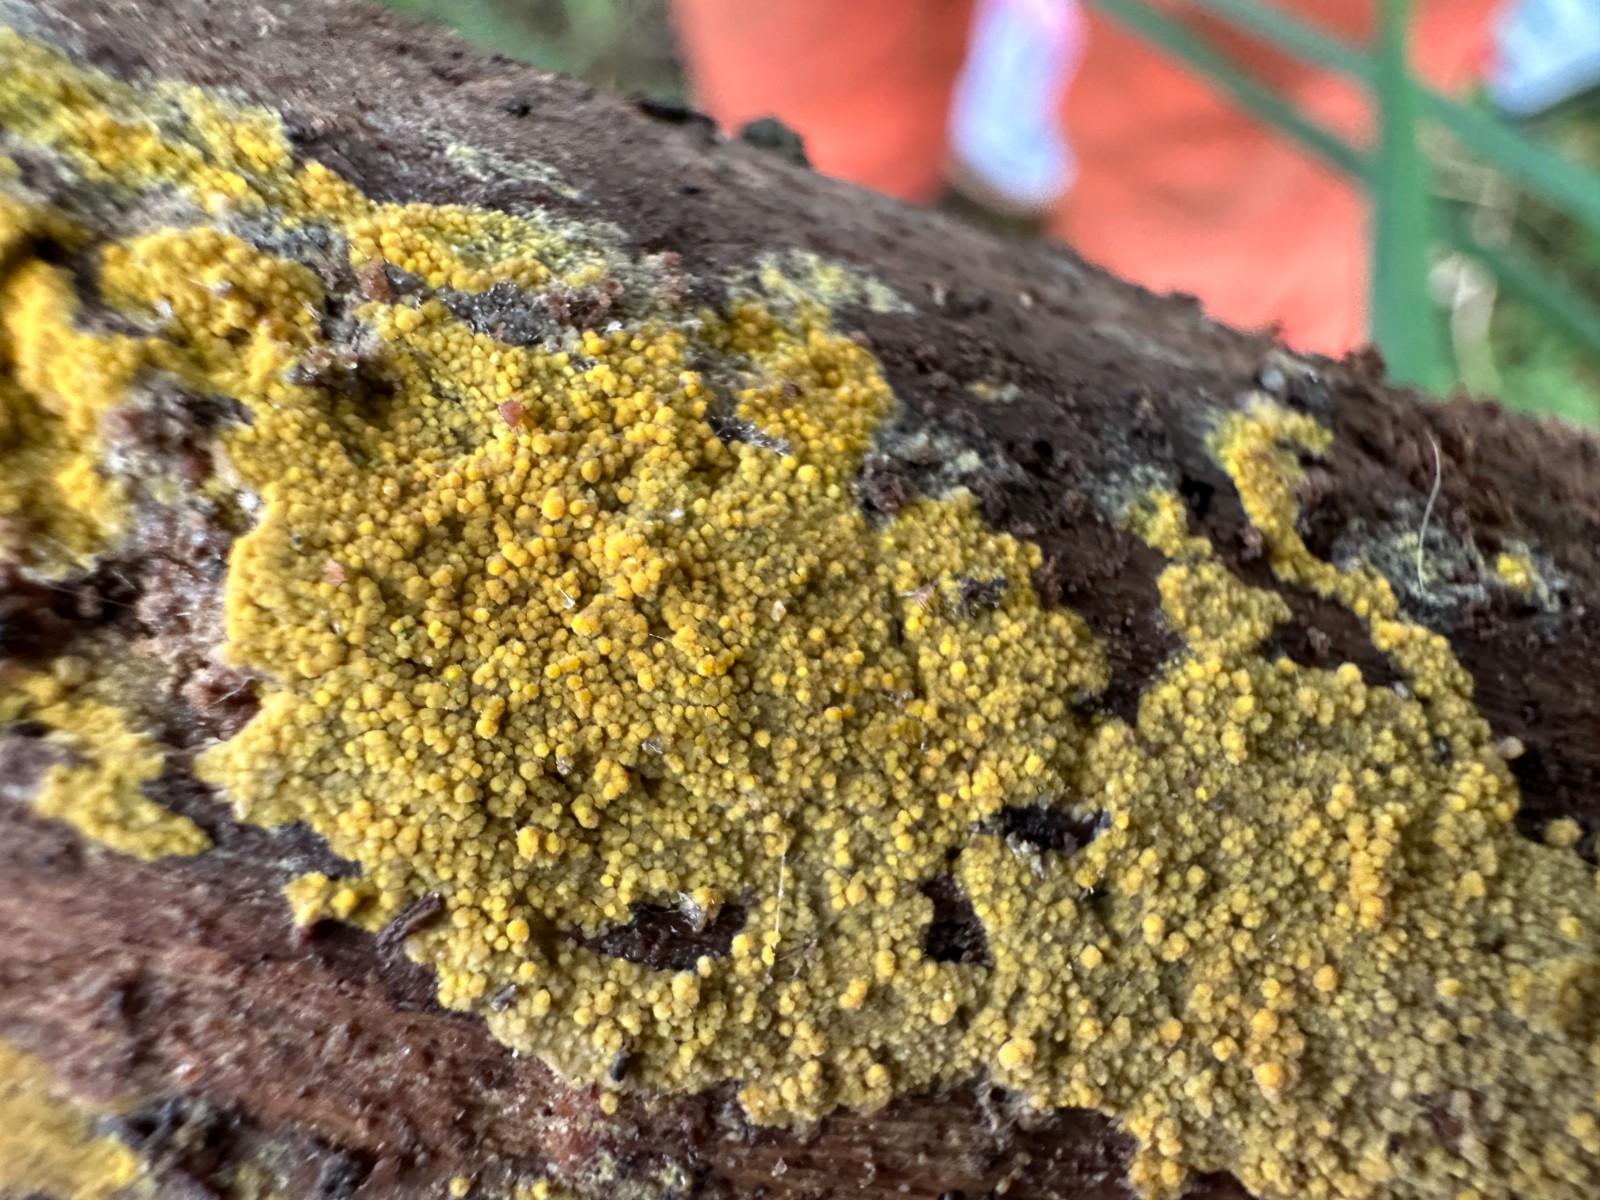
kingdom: Fungi
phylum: Basidiomycota
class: Agaricomycetes
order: Polyporales
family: Meruliaceae
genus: Phlebiodontia
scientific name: Phlebiodontia subochracea
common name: svovl-åresvamp
